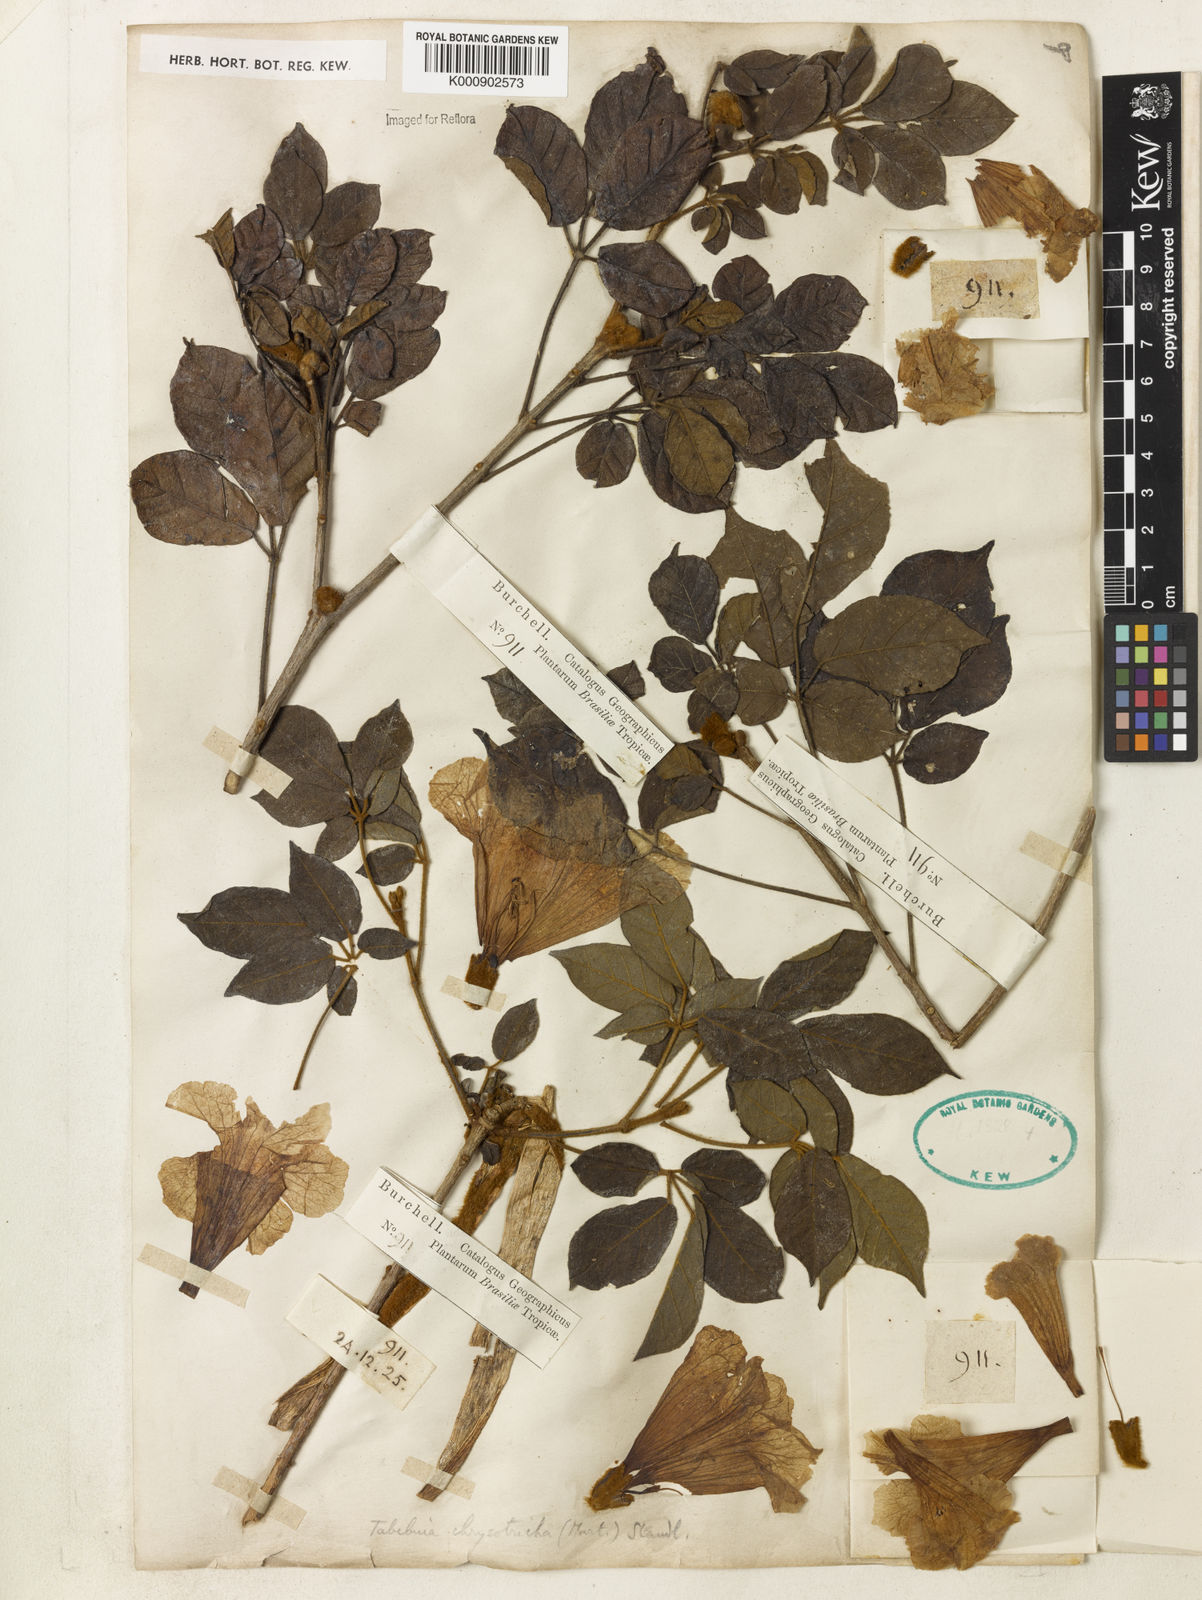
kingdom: Plantae
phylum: Tracheophyta
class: Magnoliopsida
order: Lamiales
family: Bignoniaceae
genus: Handroanthus
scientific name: Handroanthus chrysotrichus
